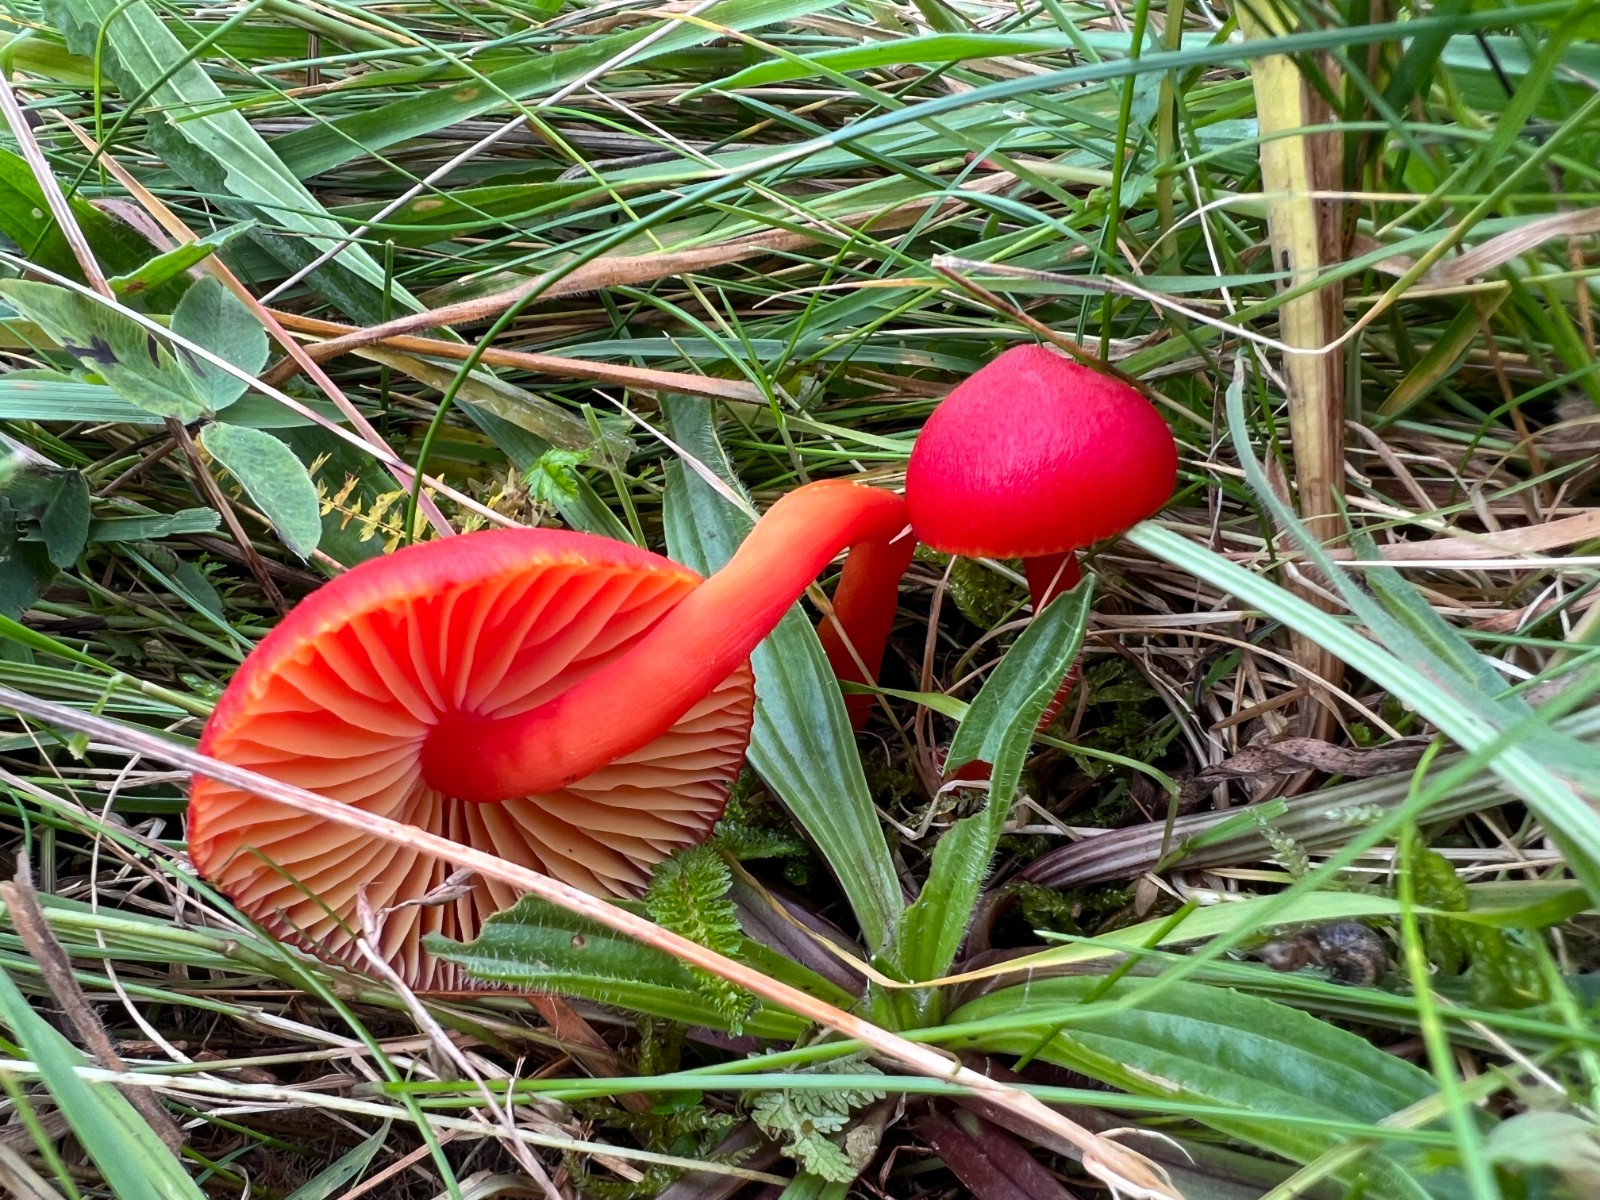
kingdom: Fungi
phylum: Basidiomycota
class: Agaricomycetes
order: Agaricales
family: Hygrophoraceae
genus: Hygrocybe
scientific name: Hygrocybe coccinea
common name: cinnober-vokshat
